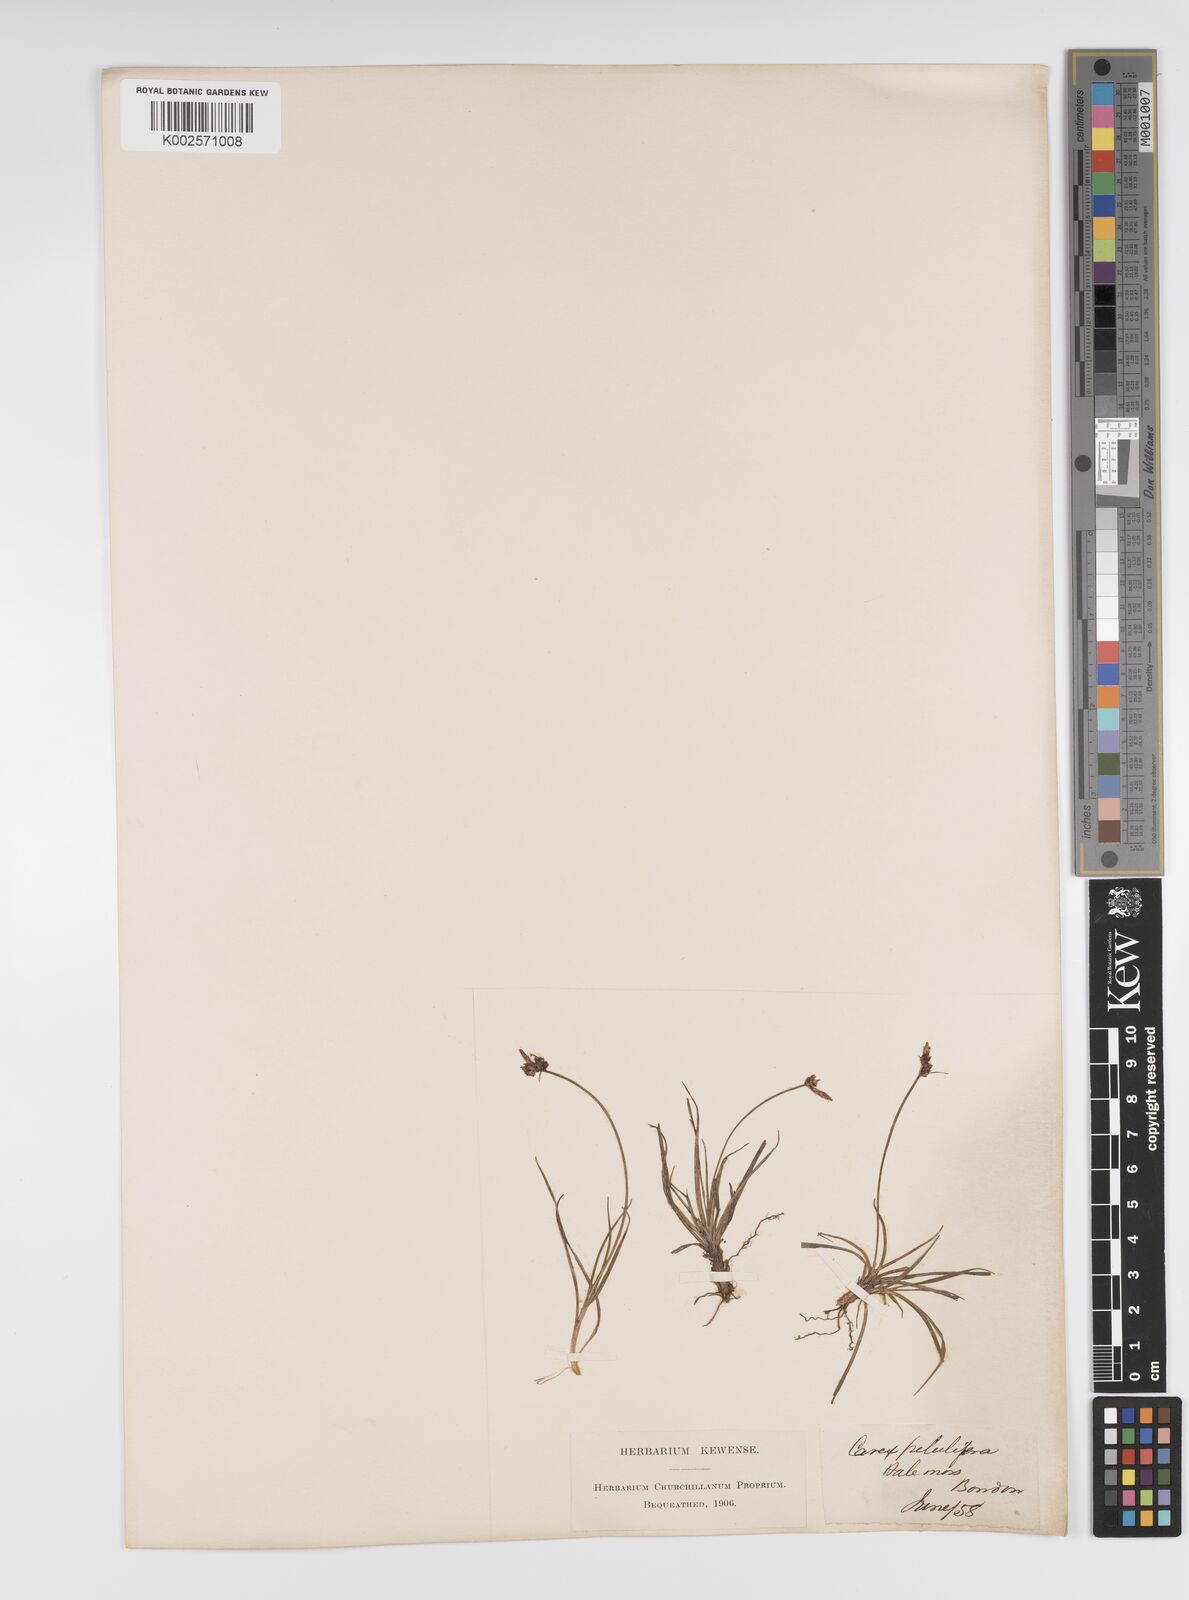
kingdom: Plantae
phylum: Tracheophyta
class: Liliopsida
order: Poales
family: Cyperaceae
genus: Carex
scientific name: Carex praecox
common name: Early sedge
